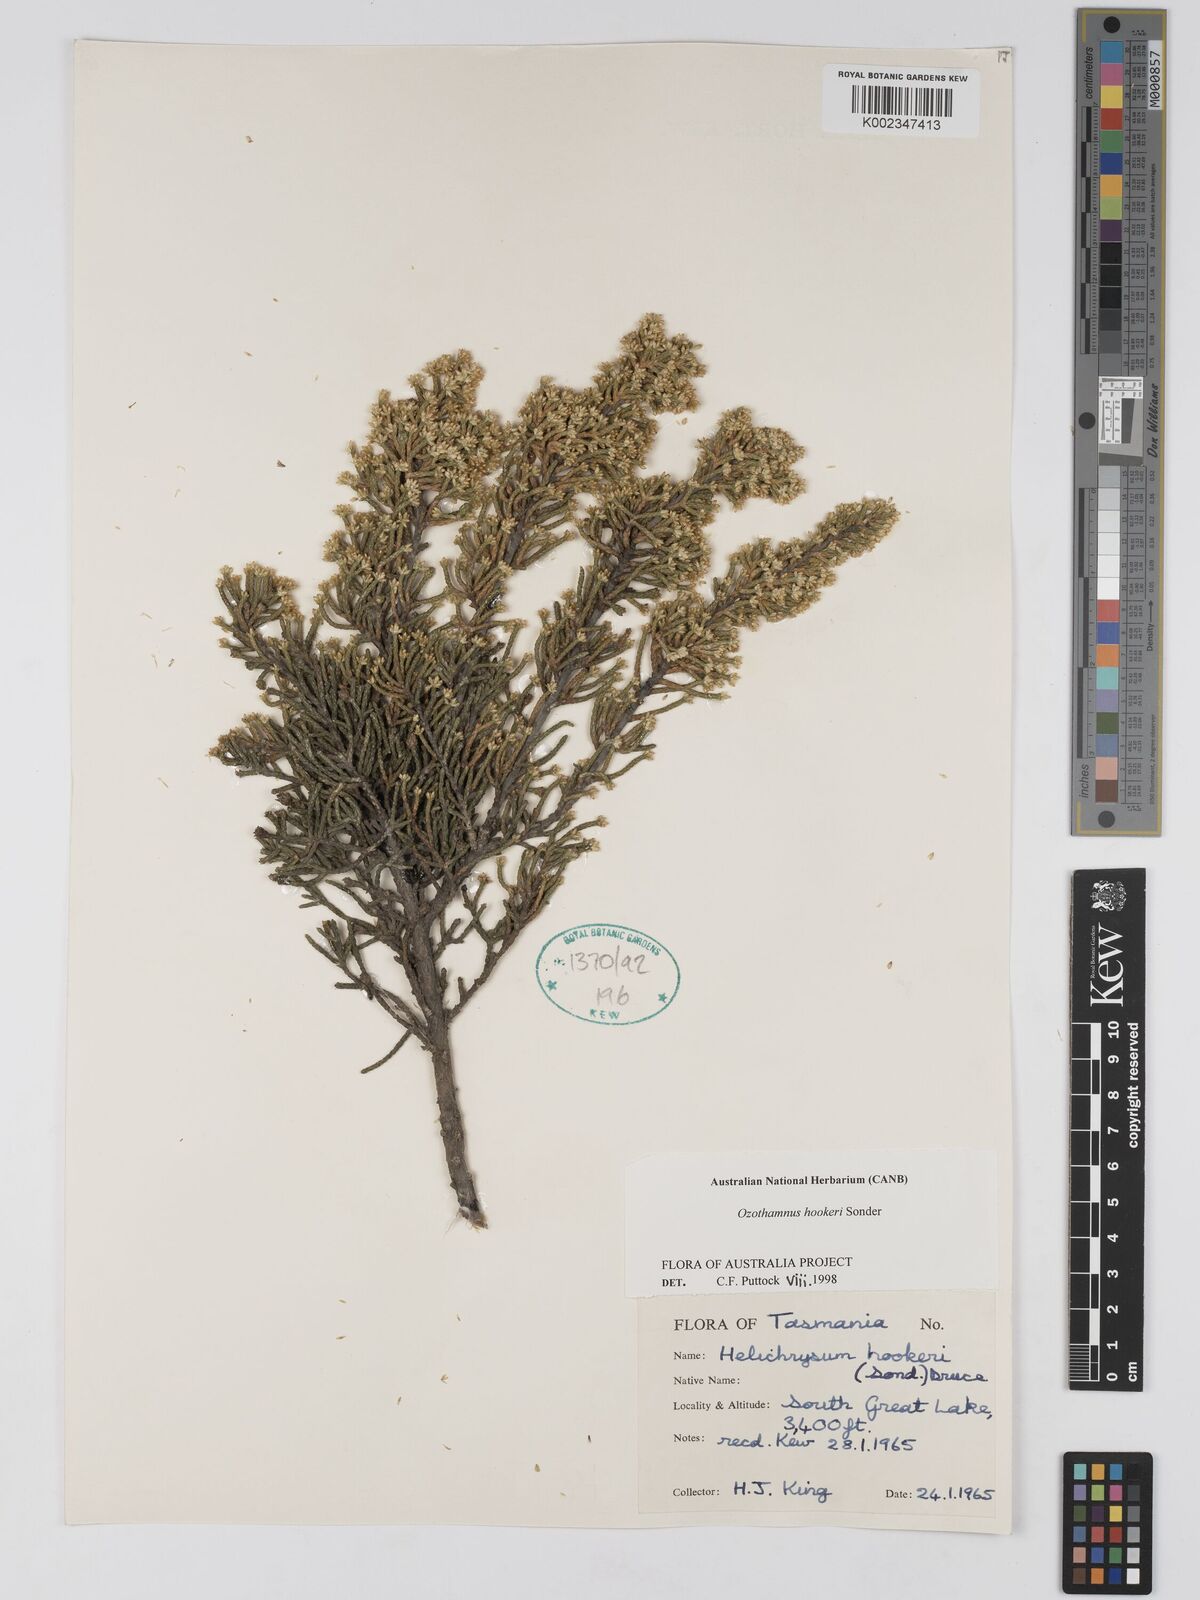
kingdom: Plantae
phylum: Tracheophyta
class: Magnoliopsida
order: Asterales
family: Asteraceae
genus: Ozothamnus
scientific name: Ozothamnus hookeri
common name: Kerosene-bush
